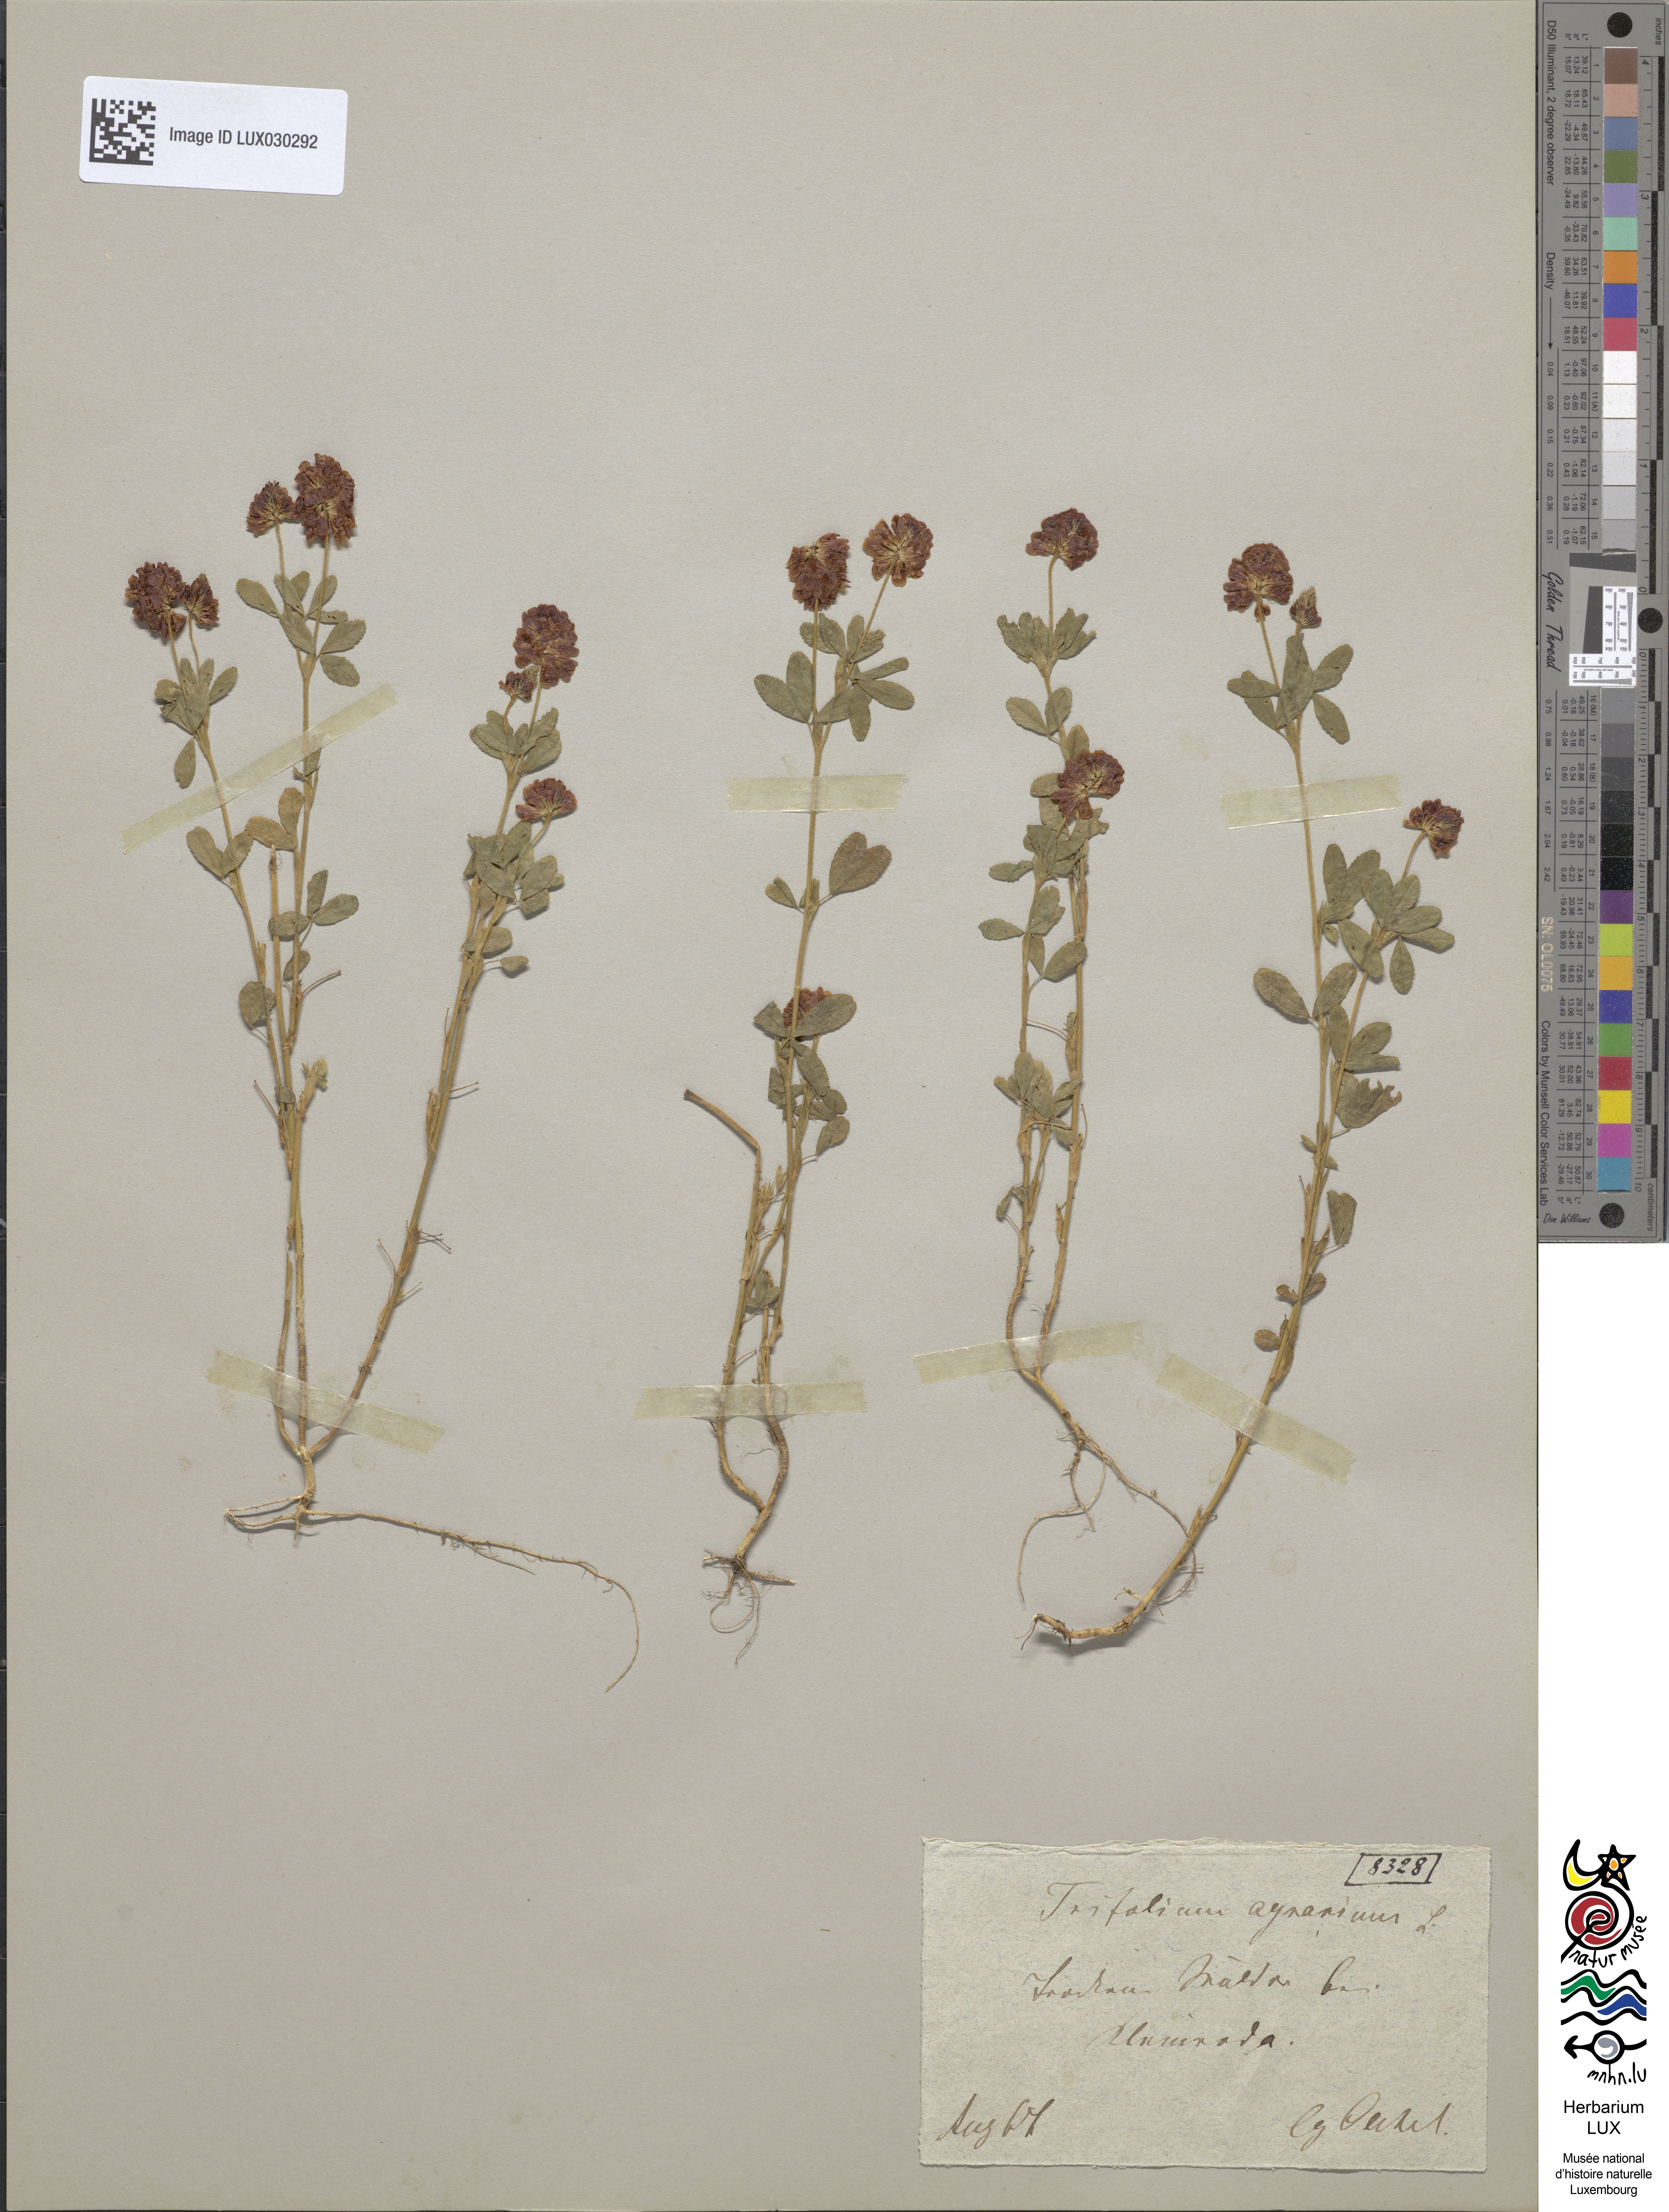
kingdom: Plantae
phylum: Tracheophyta
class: Magnoliopsida
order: Fabales
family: Fabaceae
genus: Trifolium
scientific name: Trifolium aureum
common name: Golden clover
